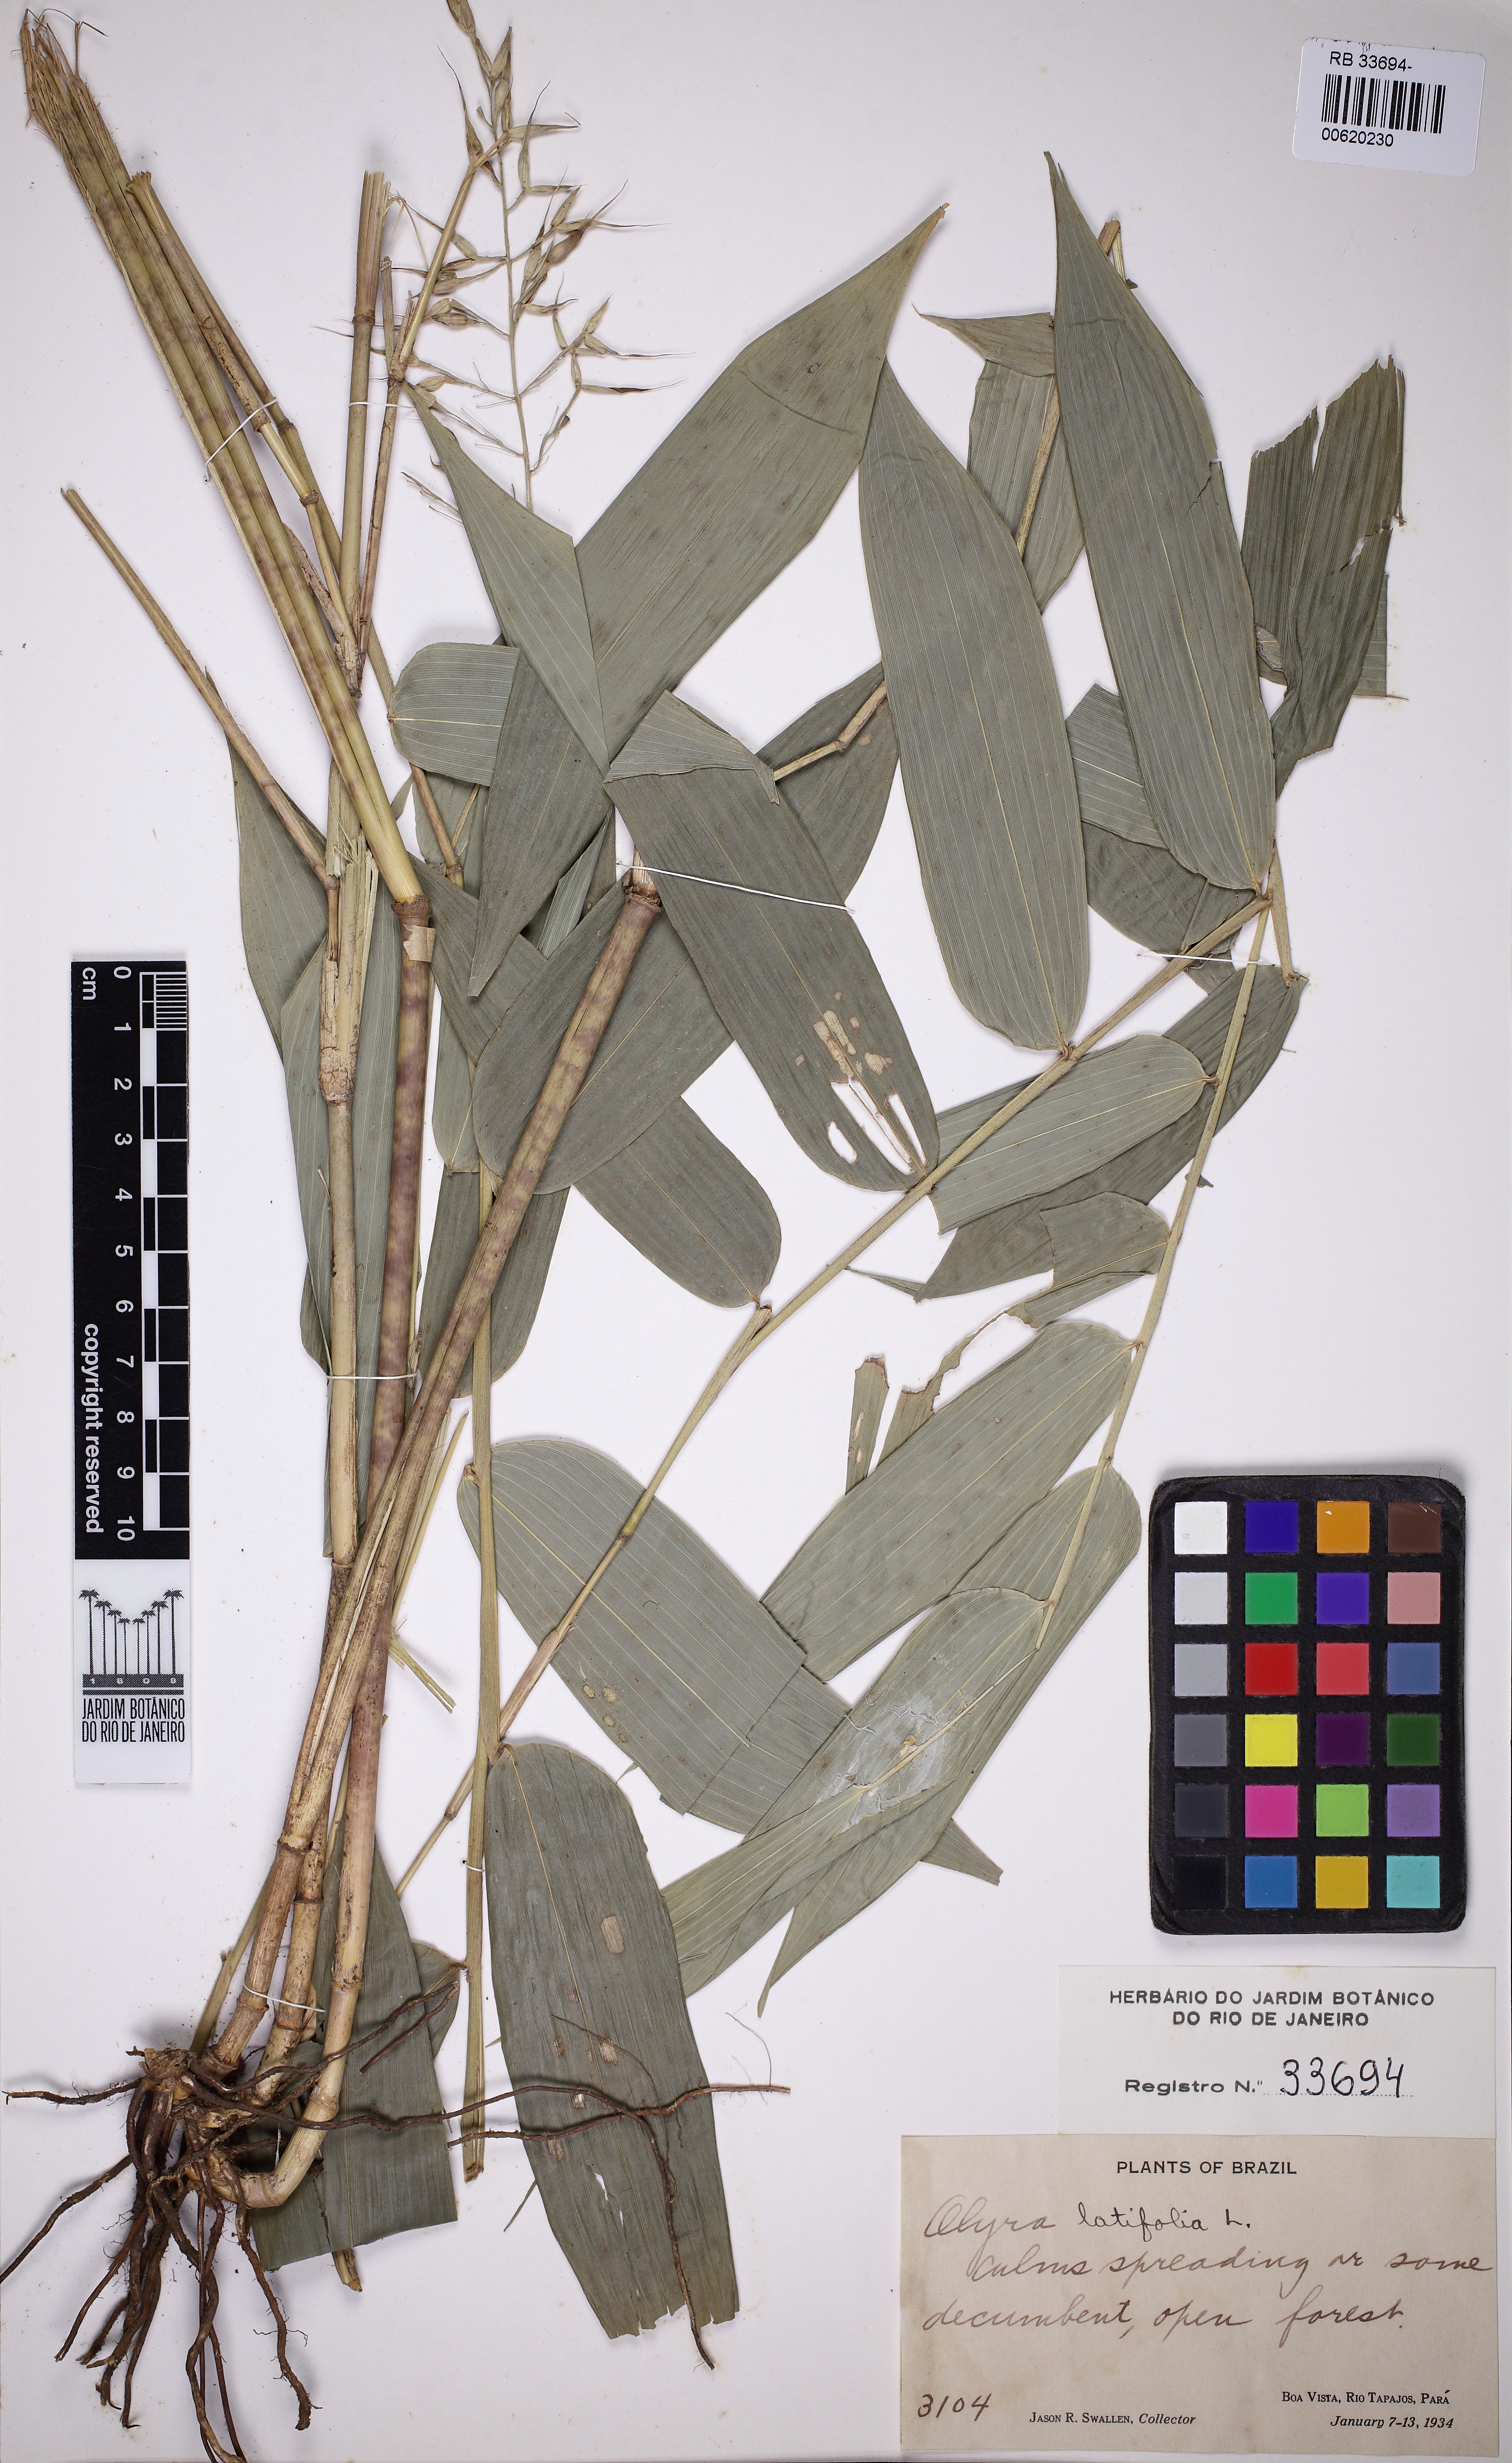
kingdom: Plantae
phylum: Tracheophyta
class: Liliopsida
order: Poales
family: Poaceae
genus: Olyra
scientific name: Olyra latifolia
